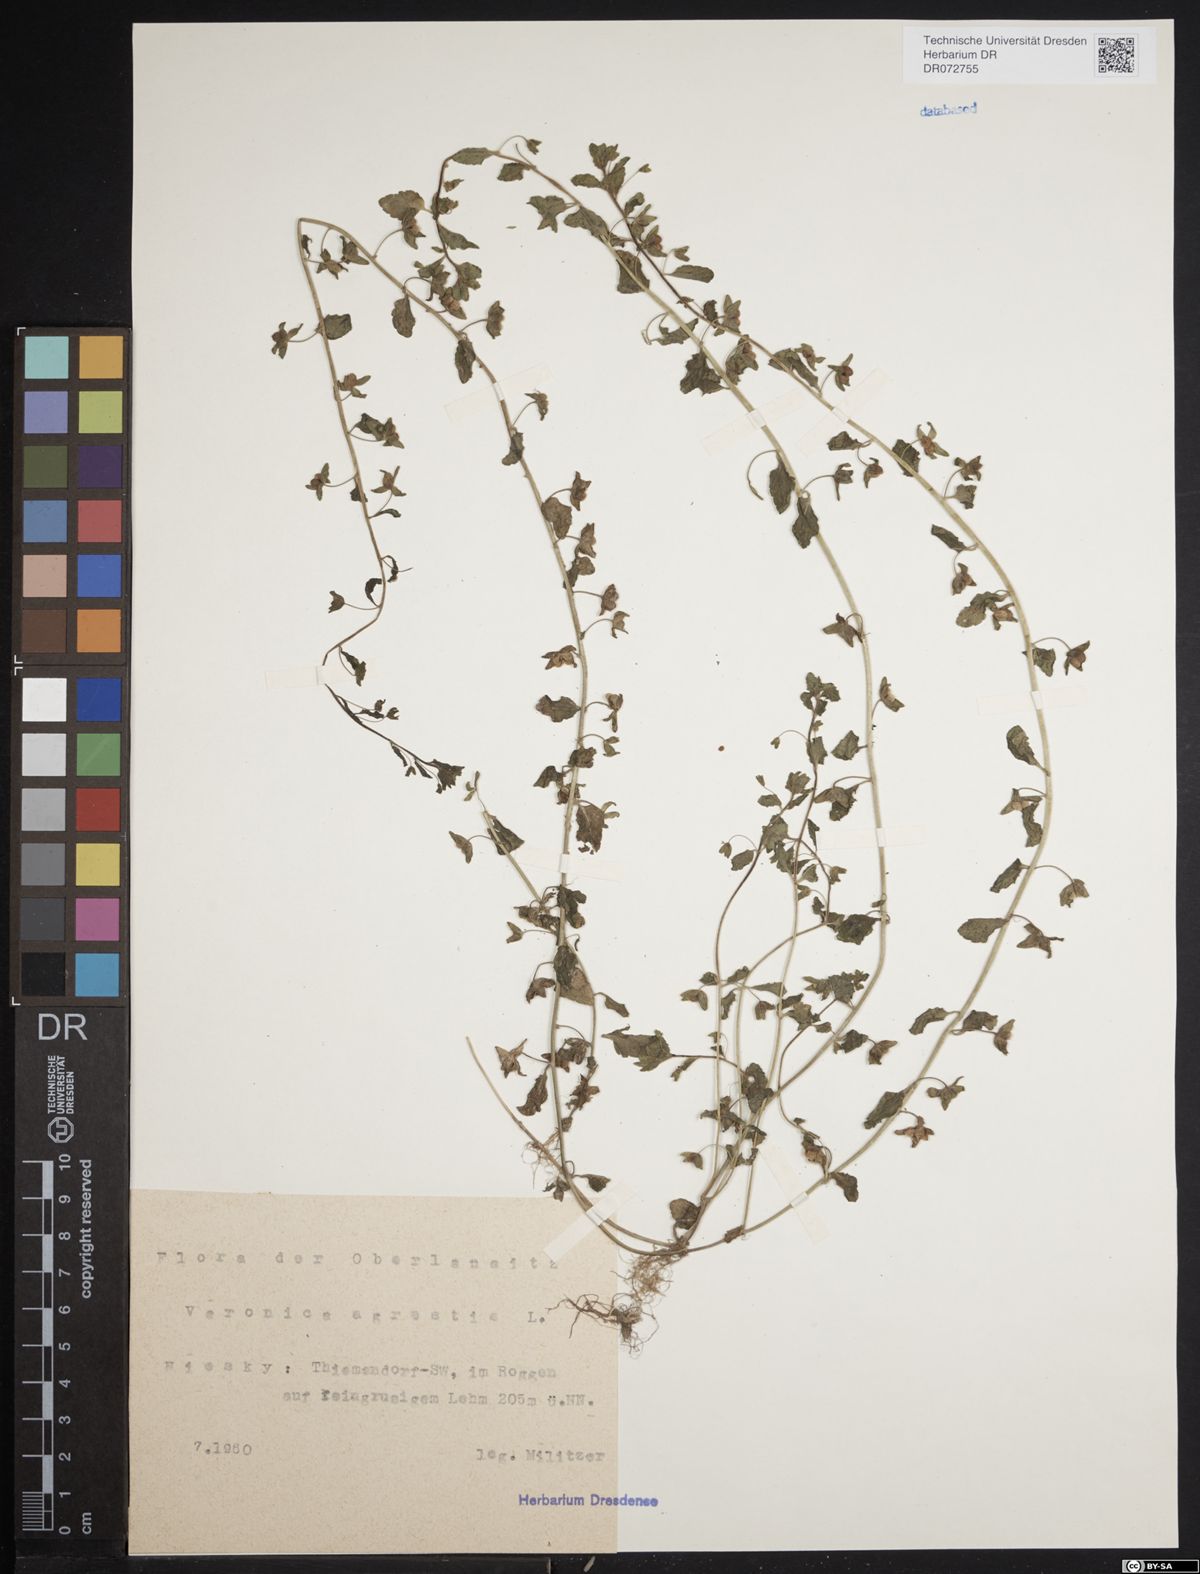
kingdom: Plantae
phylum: Tracheophyta
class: Magnoliopsida
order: Lamiales
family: Plantaginaceae
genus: Veronica
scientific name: Veronica agrestis
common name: Green field-speedwell
